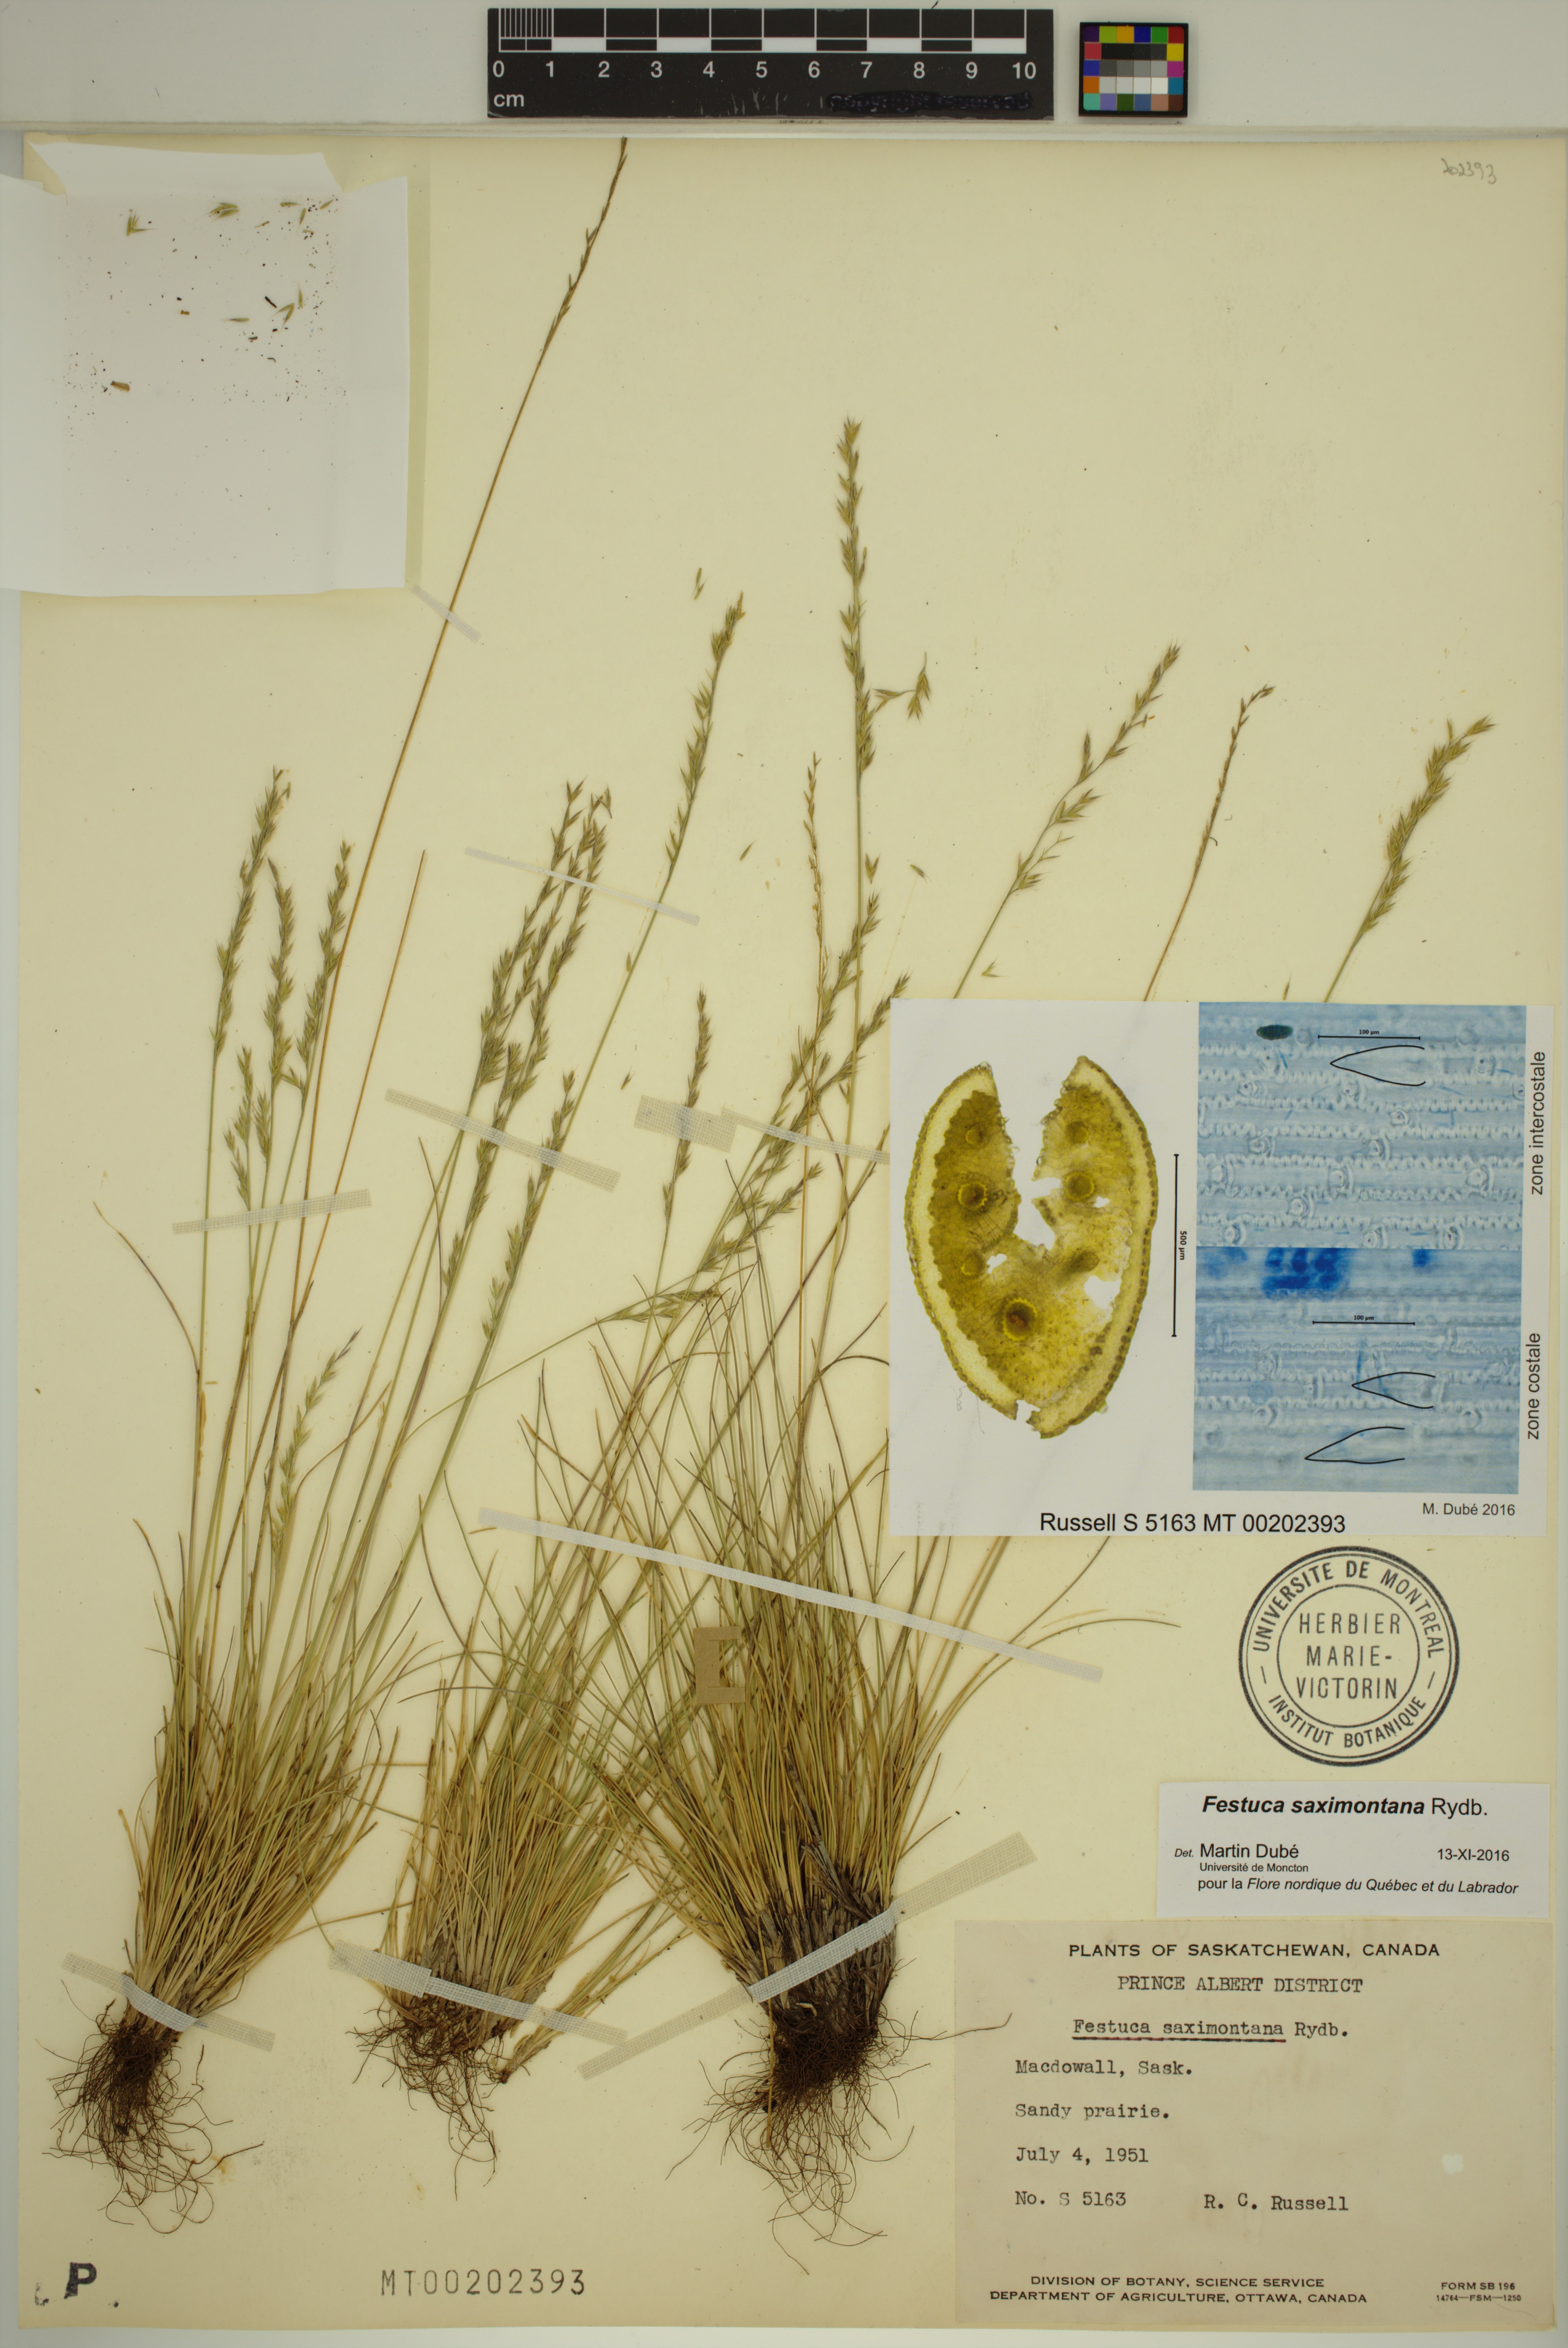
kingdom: Plantae
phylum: Tracheophyta
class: Liliopsida
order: Poales
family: Poaceae
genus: Festuca
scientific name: Festuca saximontana
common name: Mountain fescue
